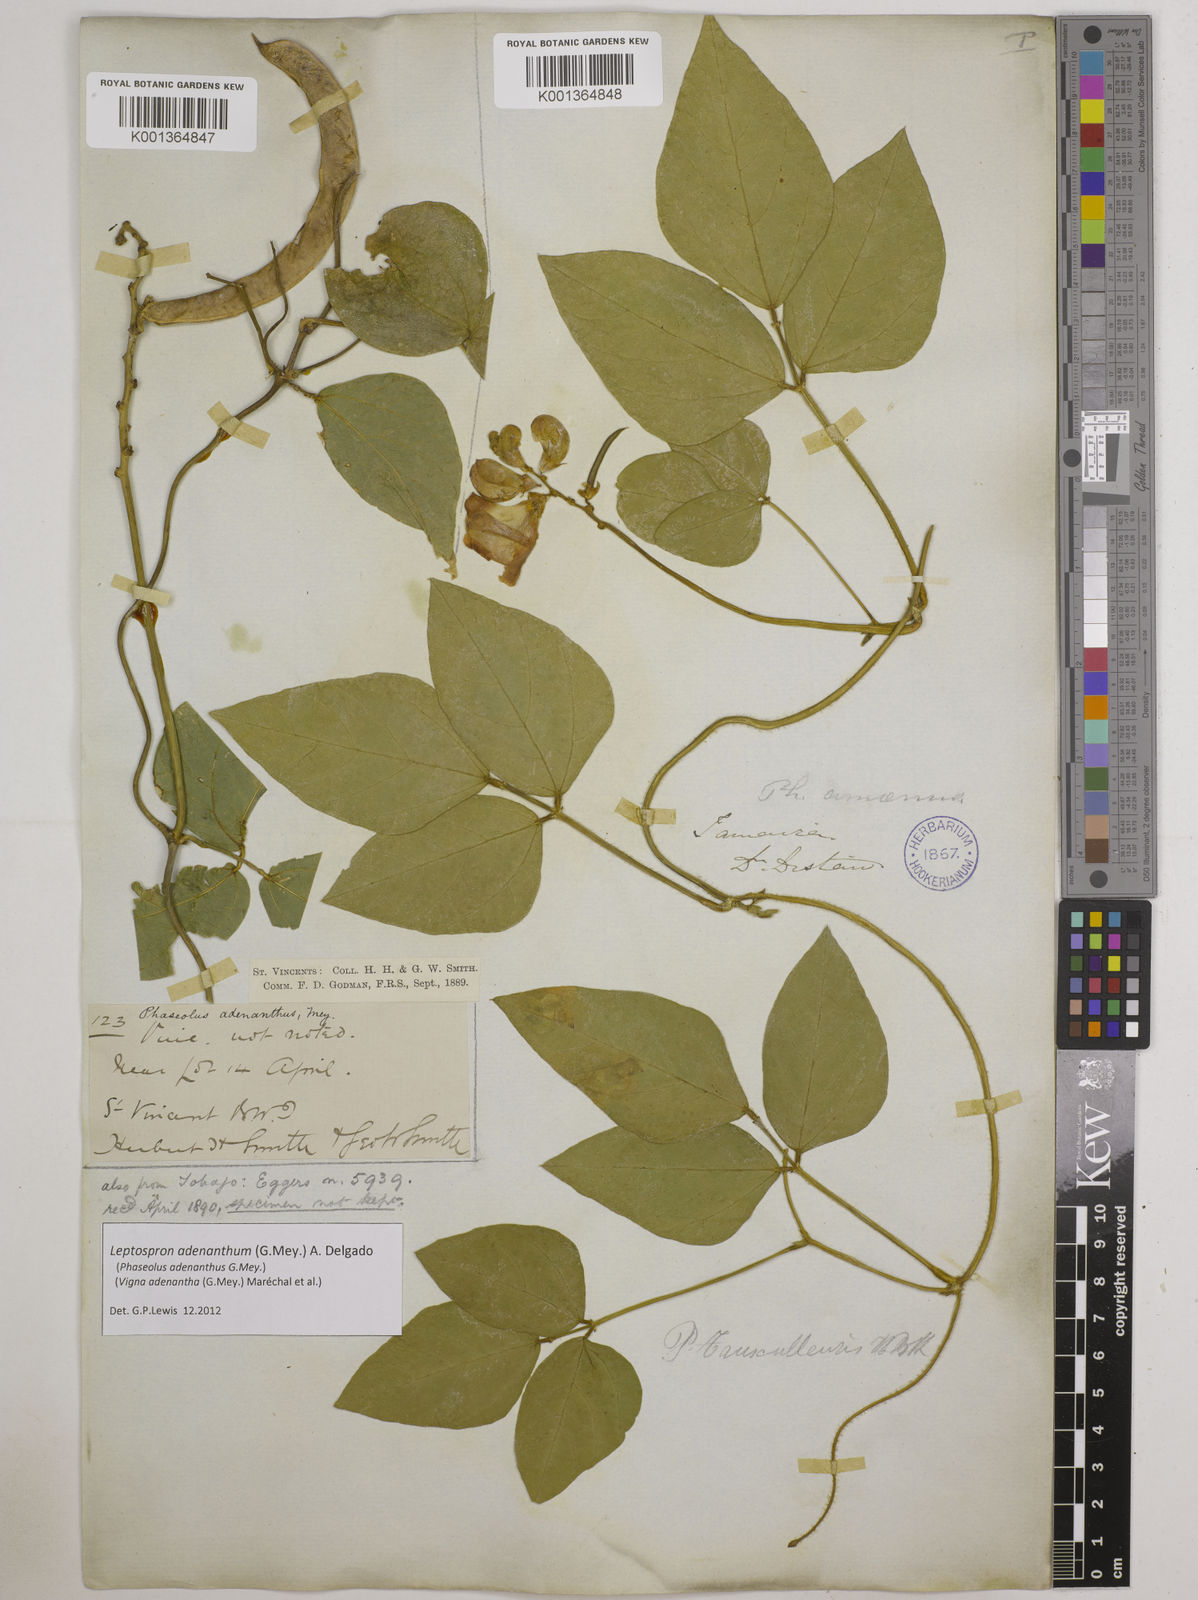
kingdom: Plantae
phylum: Tracheophyta
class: Magnoliopsida
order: Fabales
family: Fabaceae
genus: Leptospron
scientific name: Leptospron adenanthum
